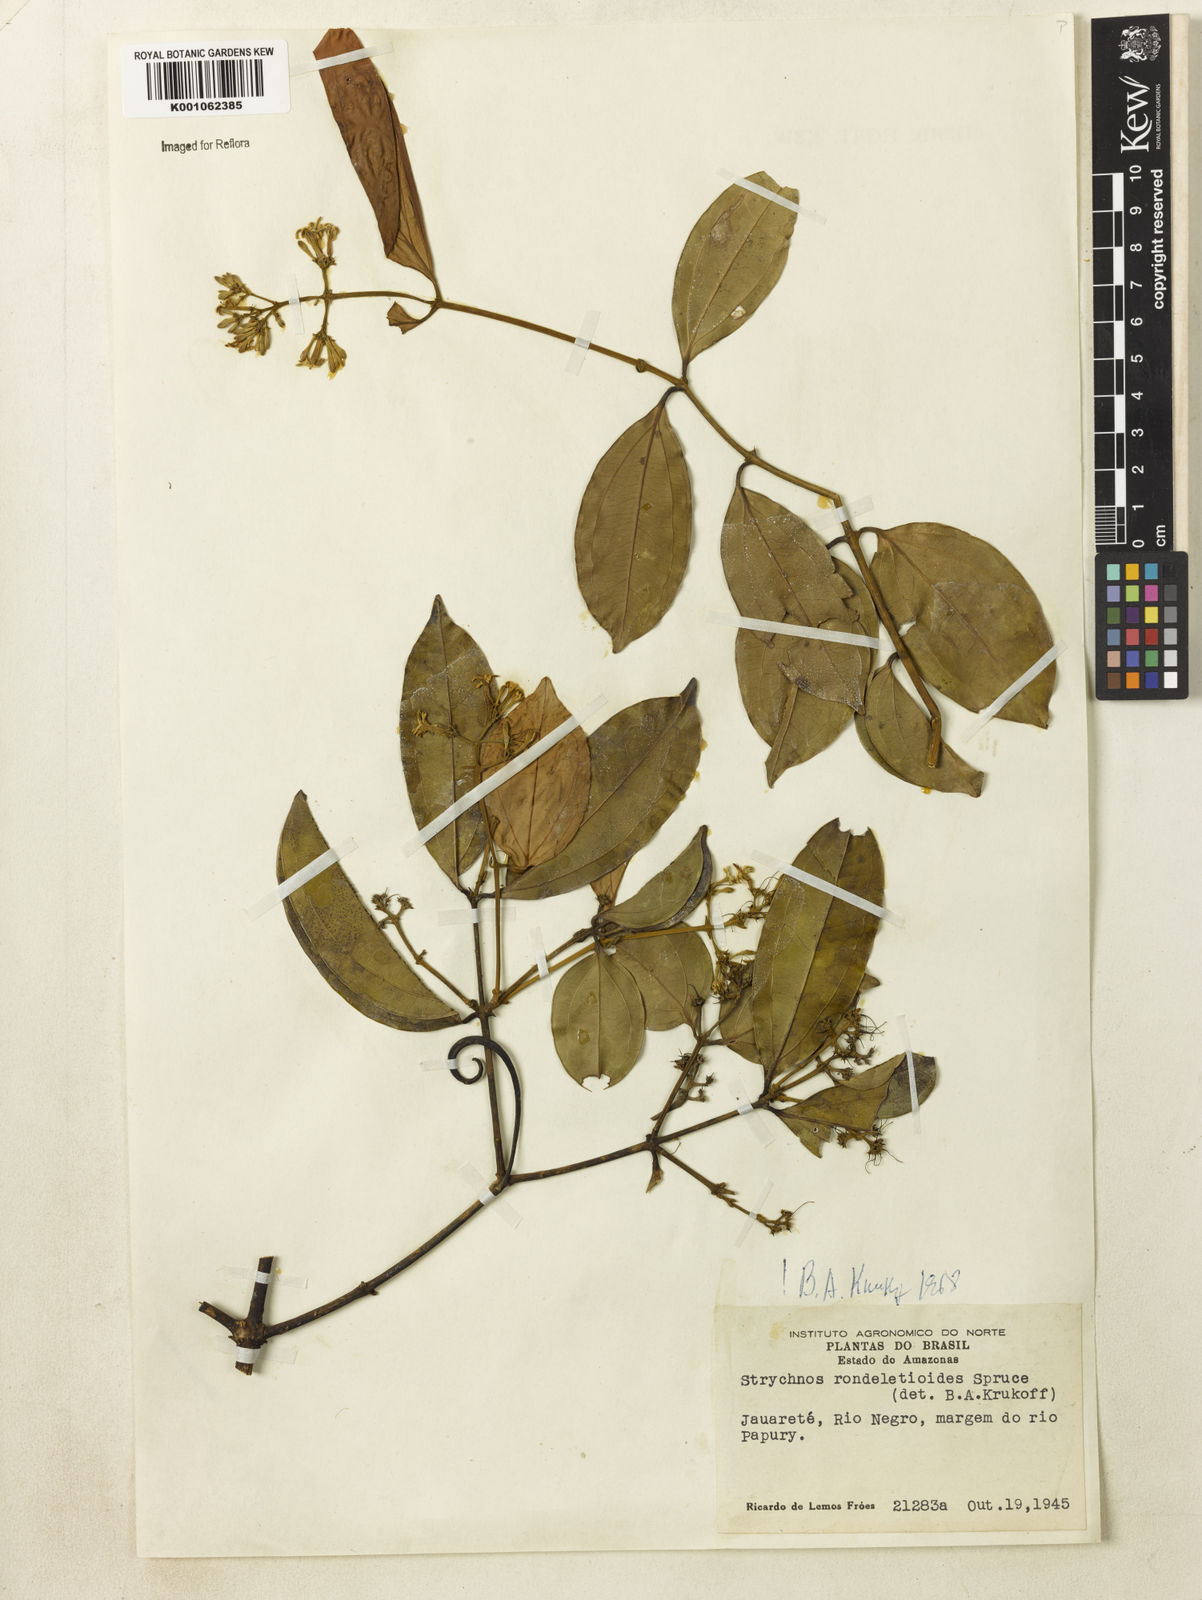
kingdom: Plantae
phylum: Tracheophyta
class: Magnoliopsida
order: Gentianales
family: Loganiaceae
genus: Strychnos
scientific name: Strychnos rondeletioides
